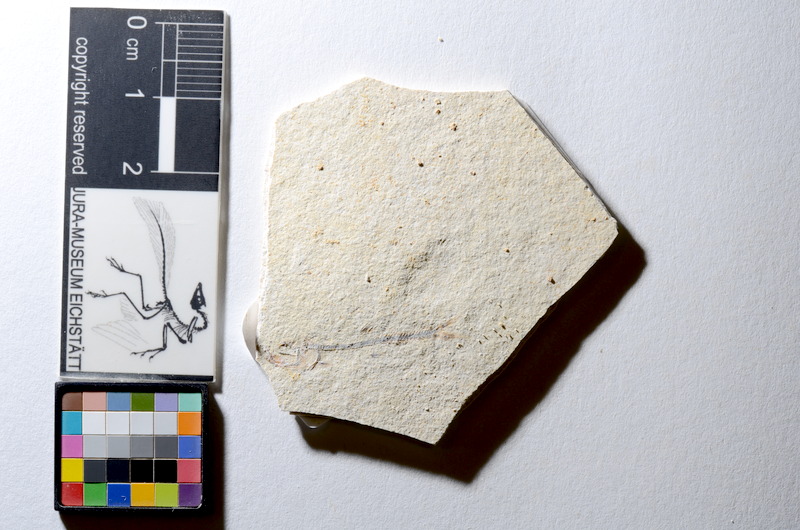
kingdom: Animalia
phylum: Chordata
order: Salmoniformes
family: Orthogonikleithridae
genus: Orthogonikleithrus
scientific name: Orthogonikleithrus hoelli
